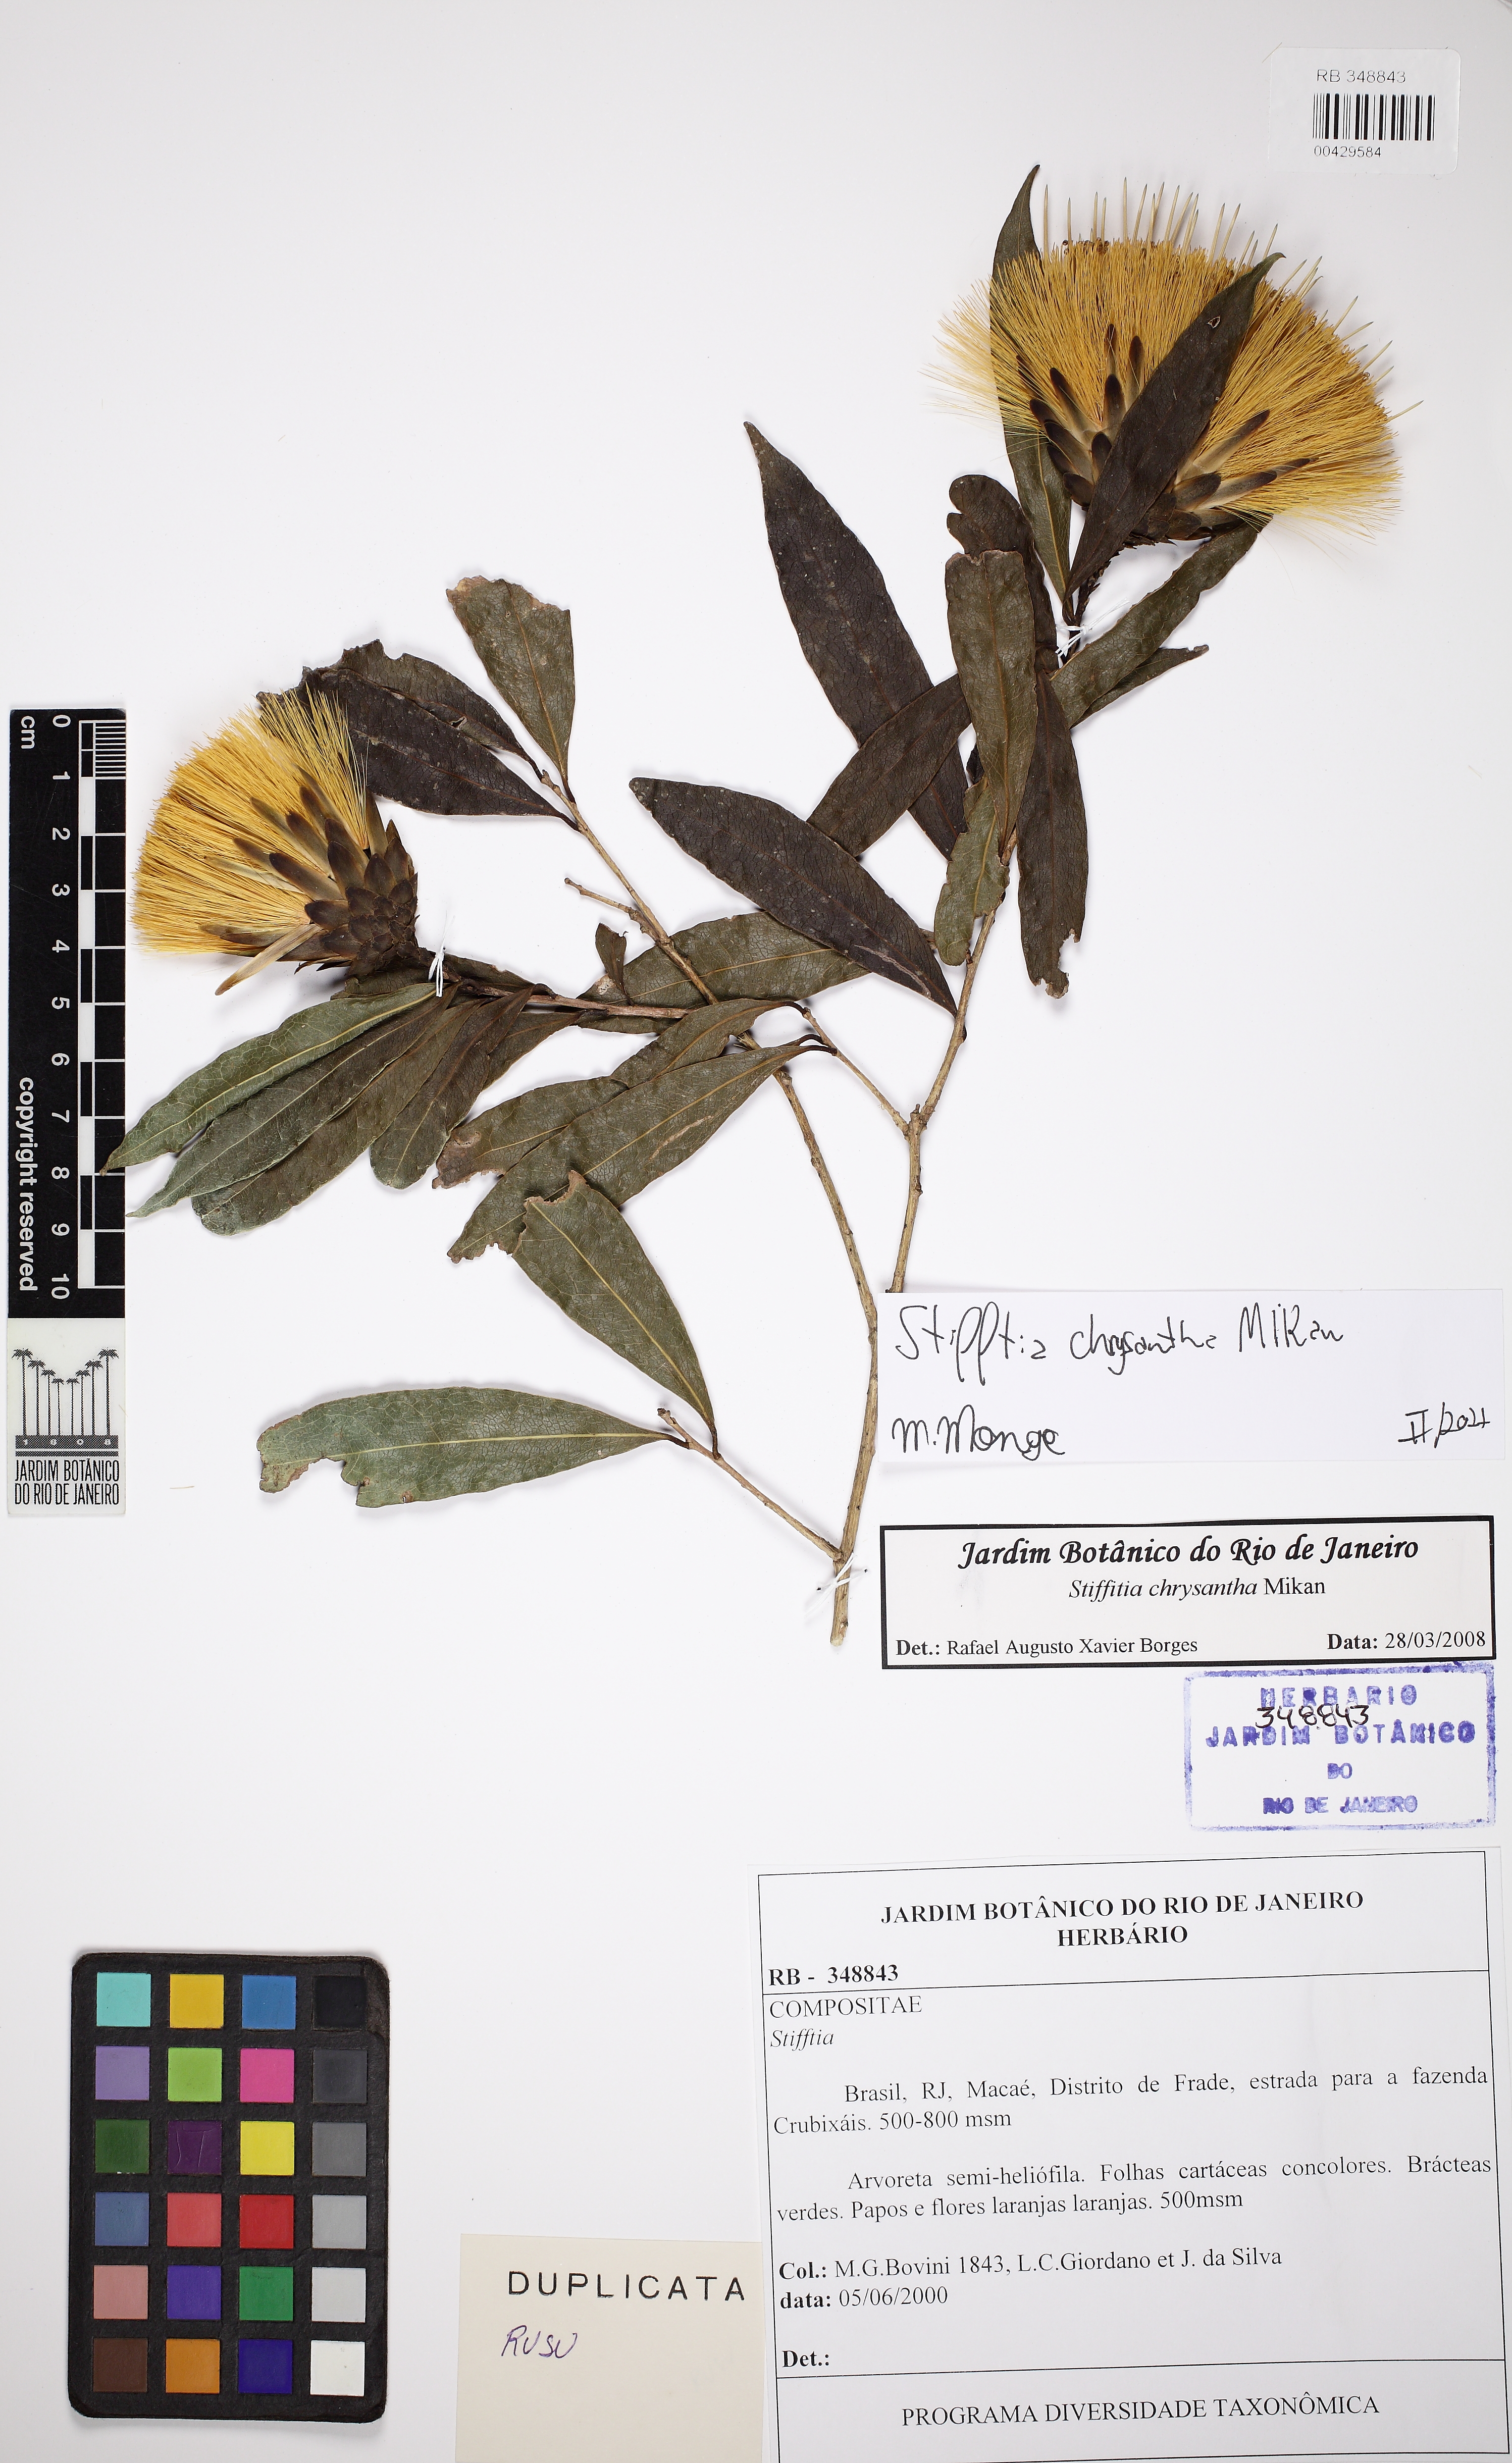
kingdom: Plantae
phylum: Tracheophyta
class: Magnoliopsida
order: Asterales
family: Asteraceae
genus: Stifftia
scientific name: Stifftia chrysantha
